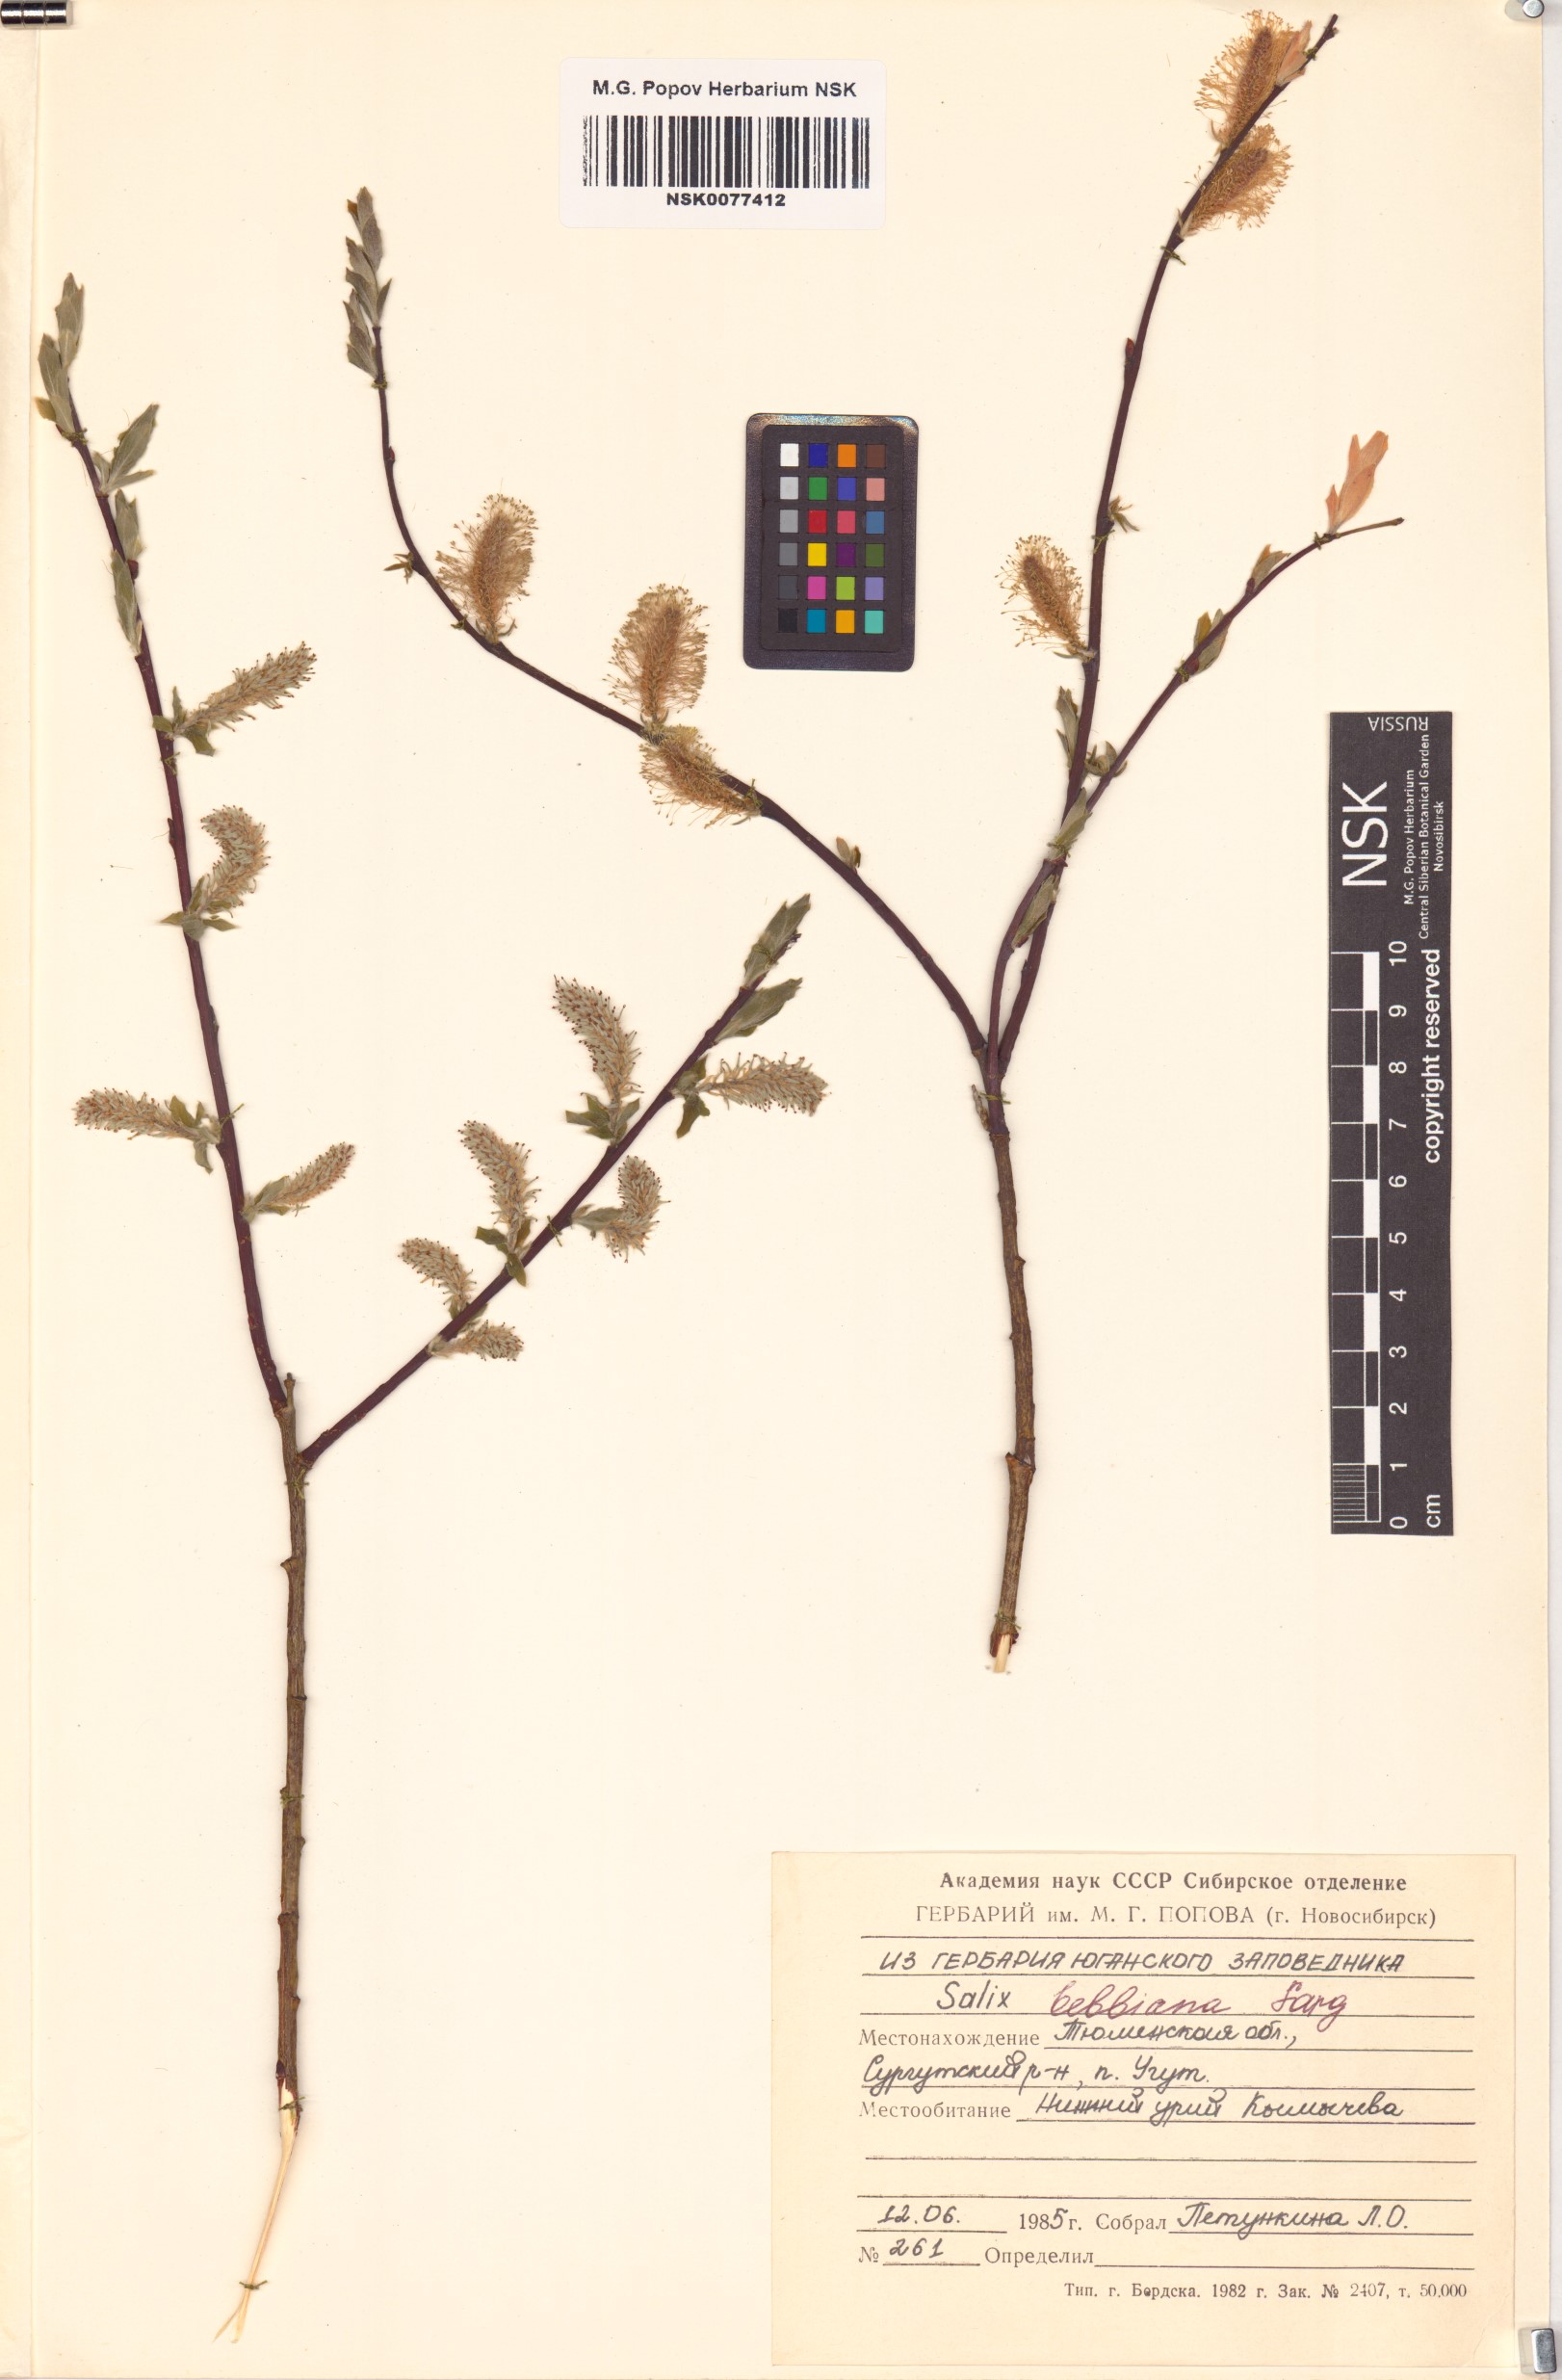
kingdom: Plantae
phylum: Tracheophyta
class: Magnoliopsida
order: Malpighiales
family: Salicaceae
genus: Salix
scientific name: Salix bebbiana
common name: Bebb's willow
